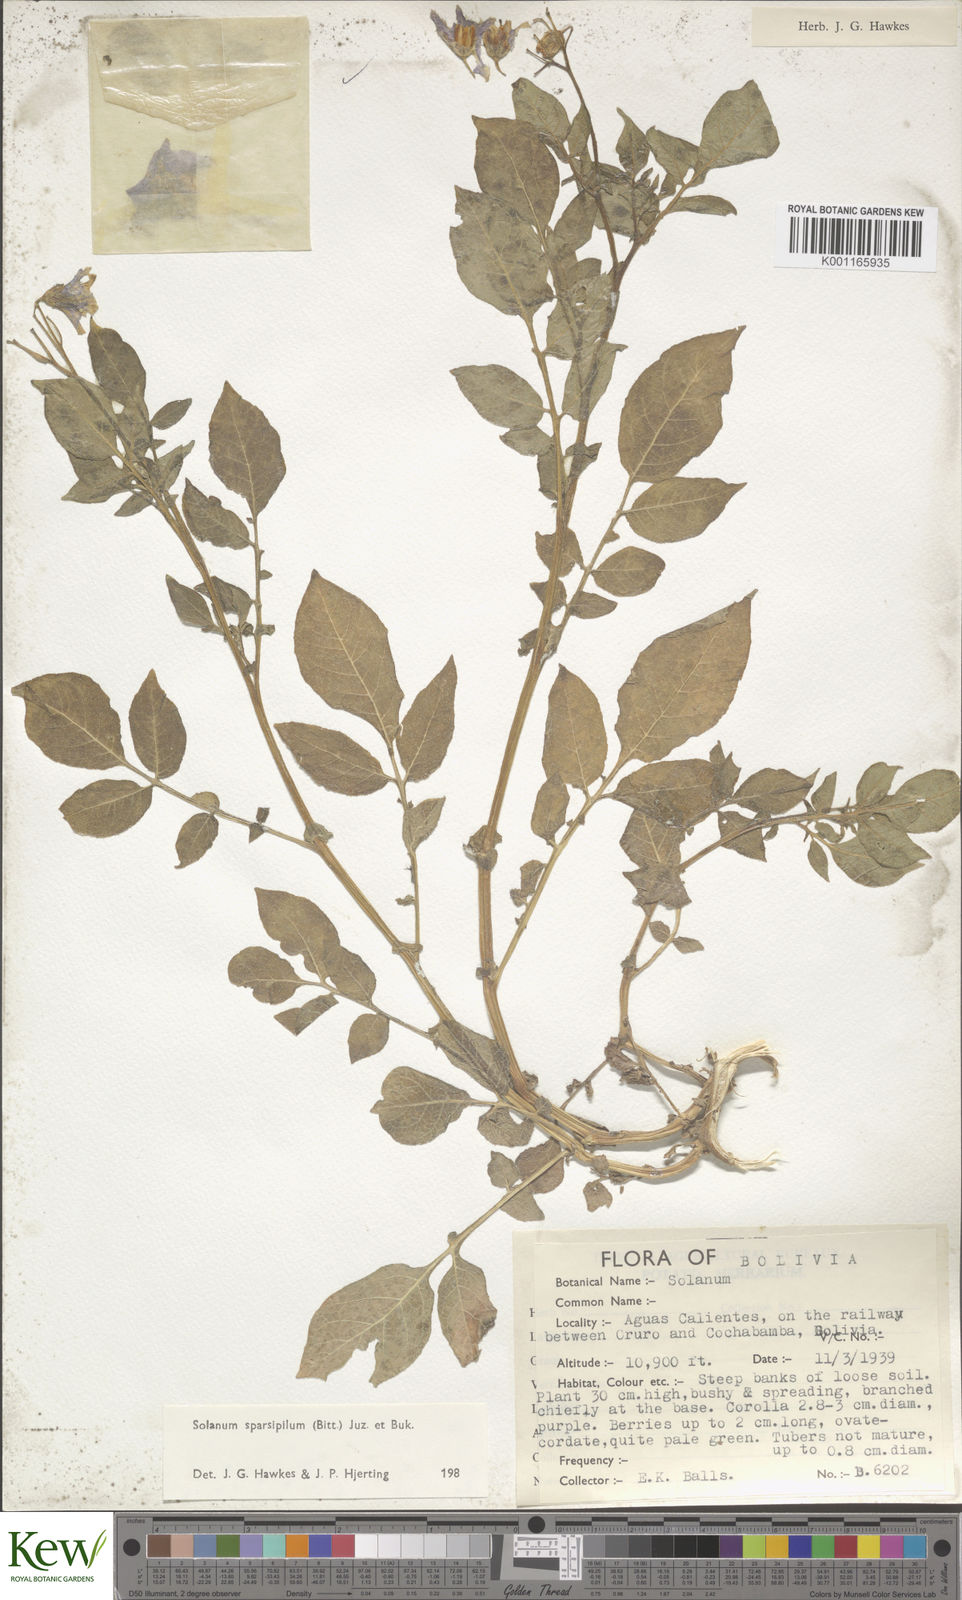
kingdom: Plantae
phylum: Tracheophyta
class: Magnoliopsida
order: Solanales
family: Solanaceae
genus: Solanum
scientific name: Solanum brevicaule
